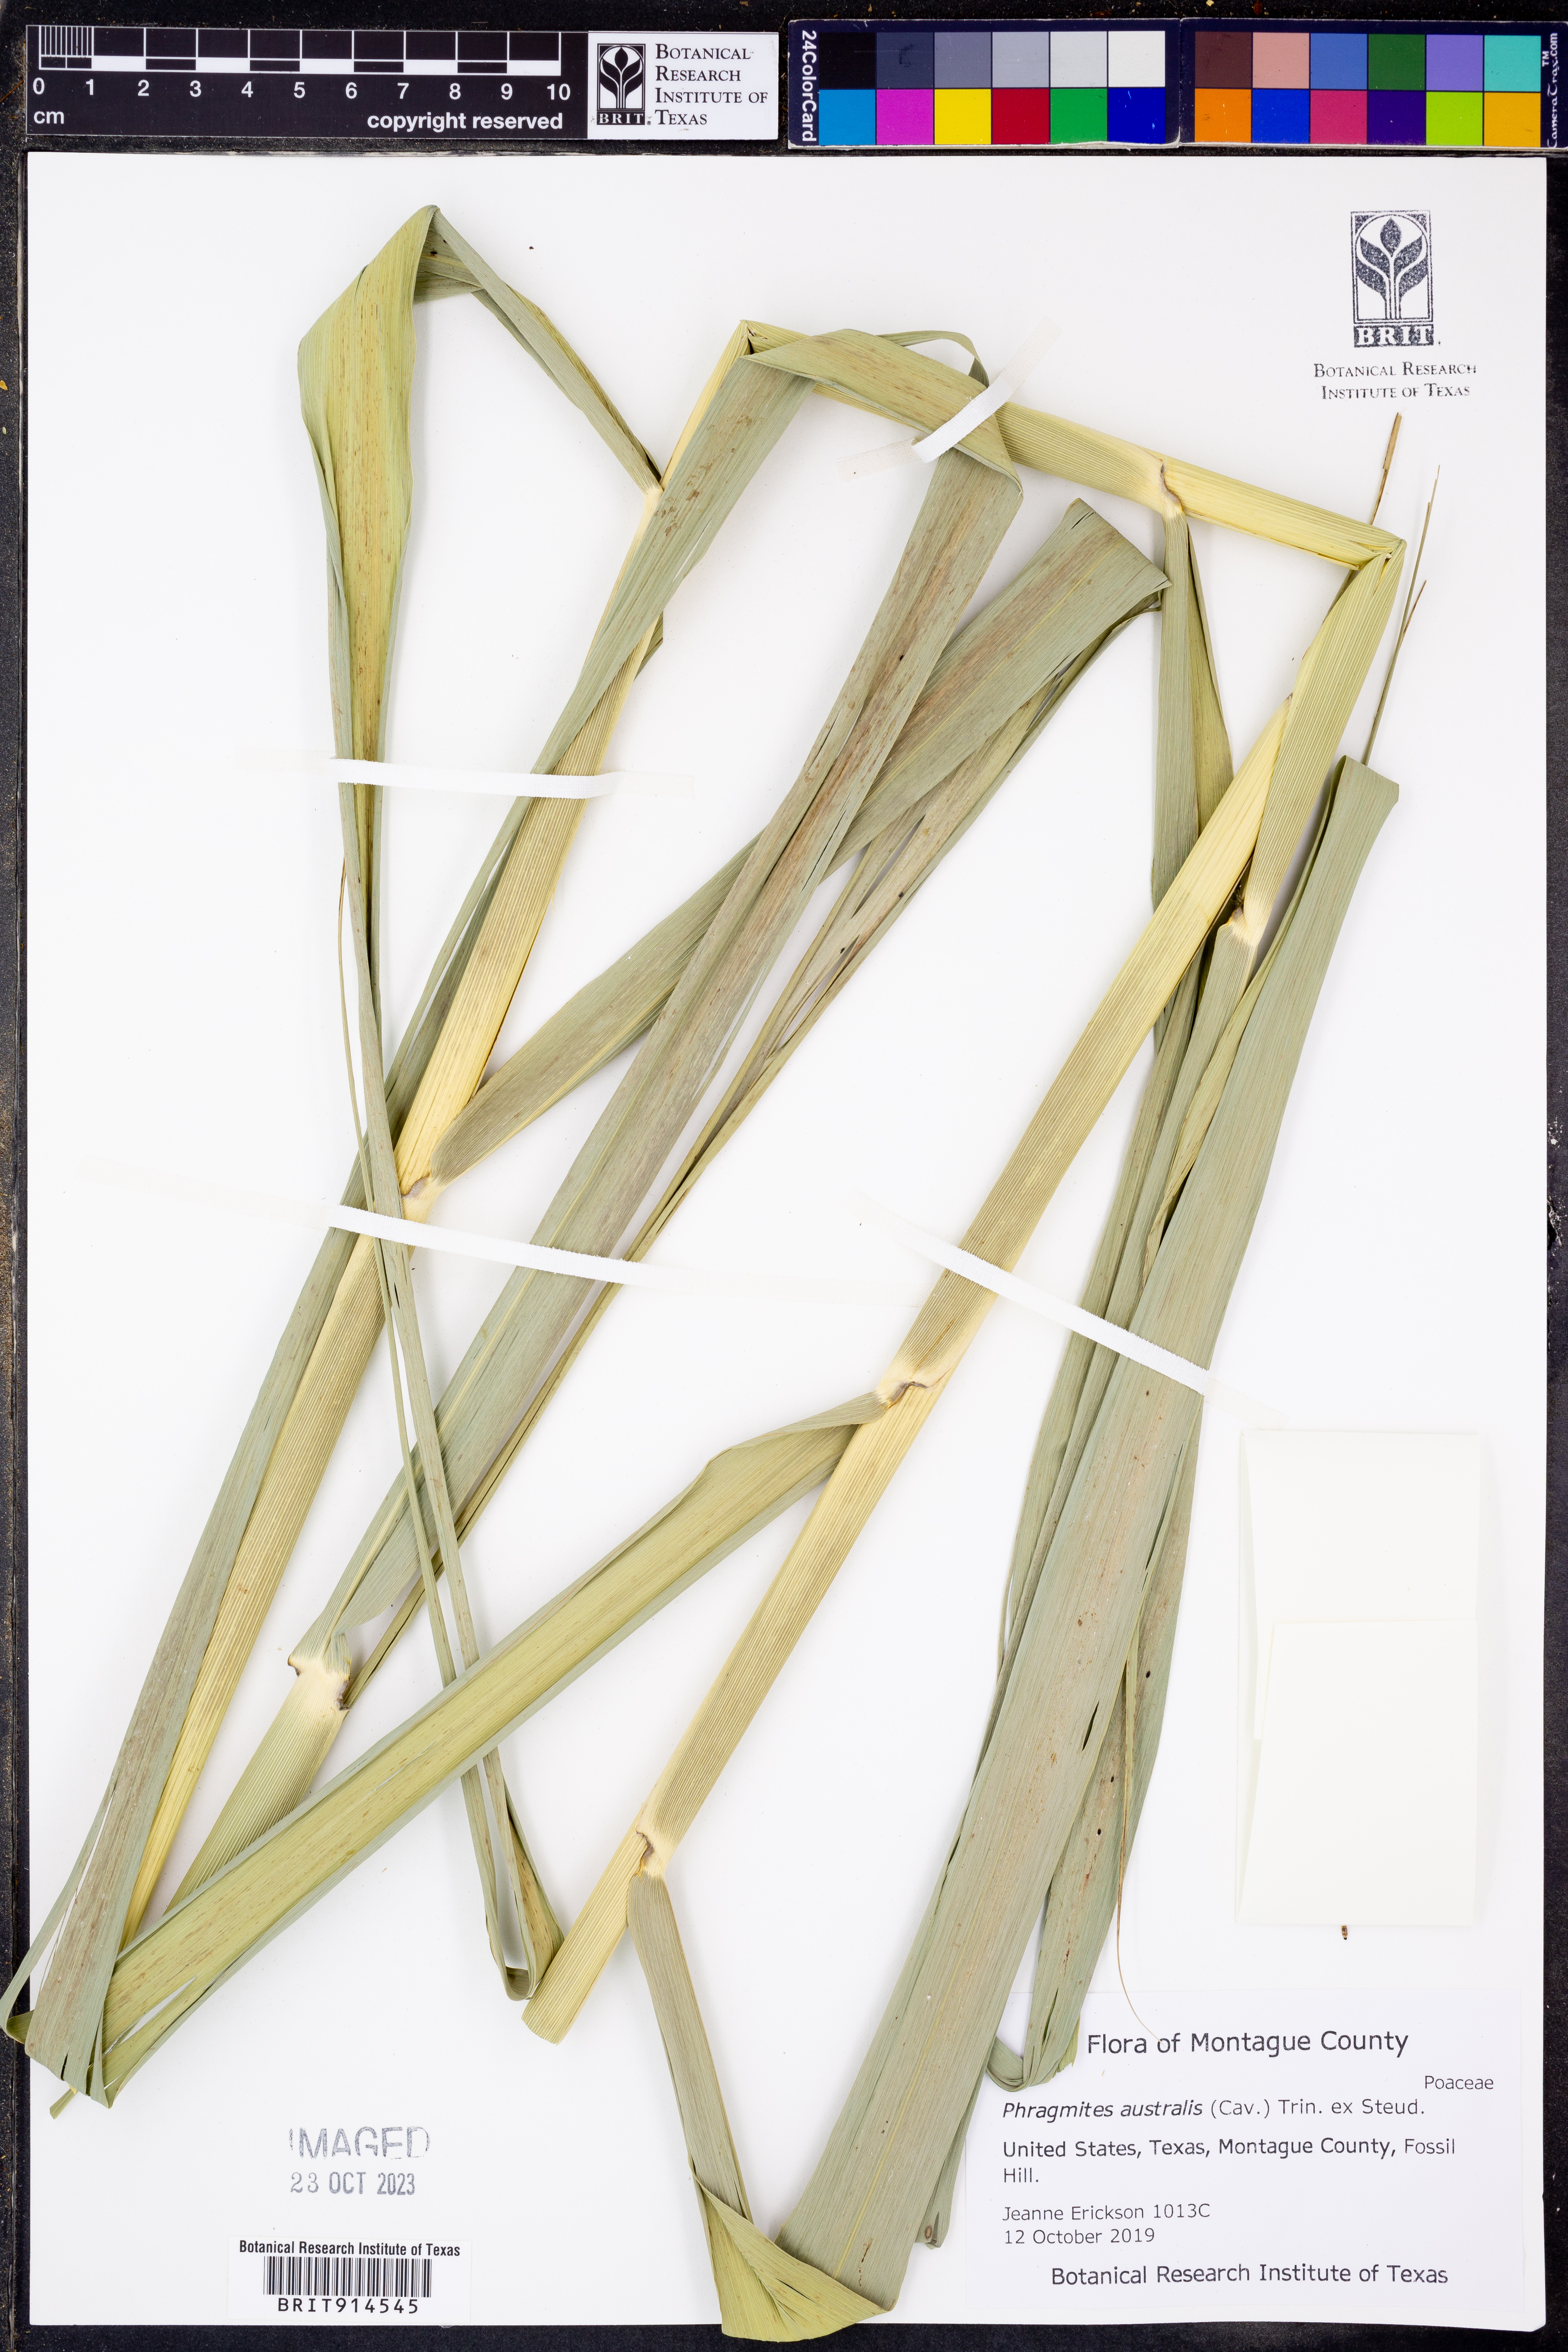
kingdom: Plantae
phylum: Tracheophyta
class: Liliopsida
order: Poales
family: Poaceae
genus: Phragmites
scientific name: Phragmites australis
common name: Common reed
